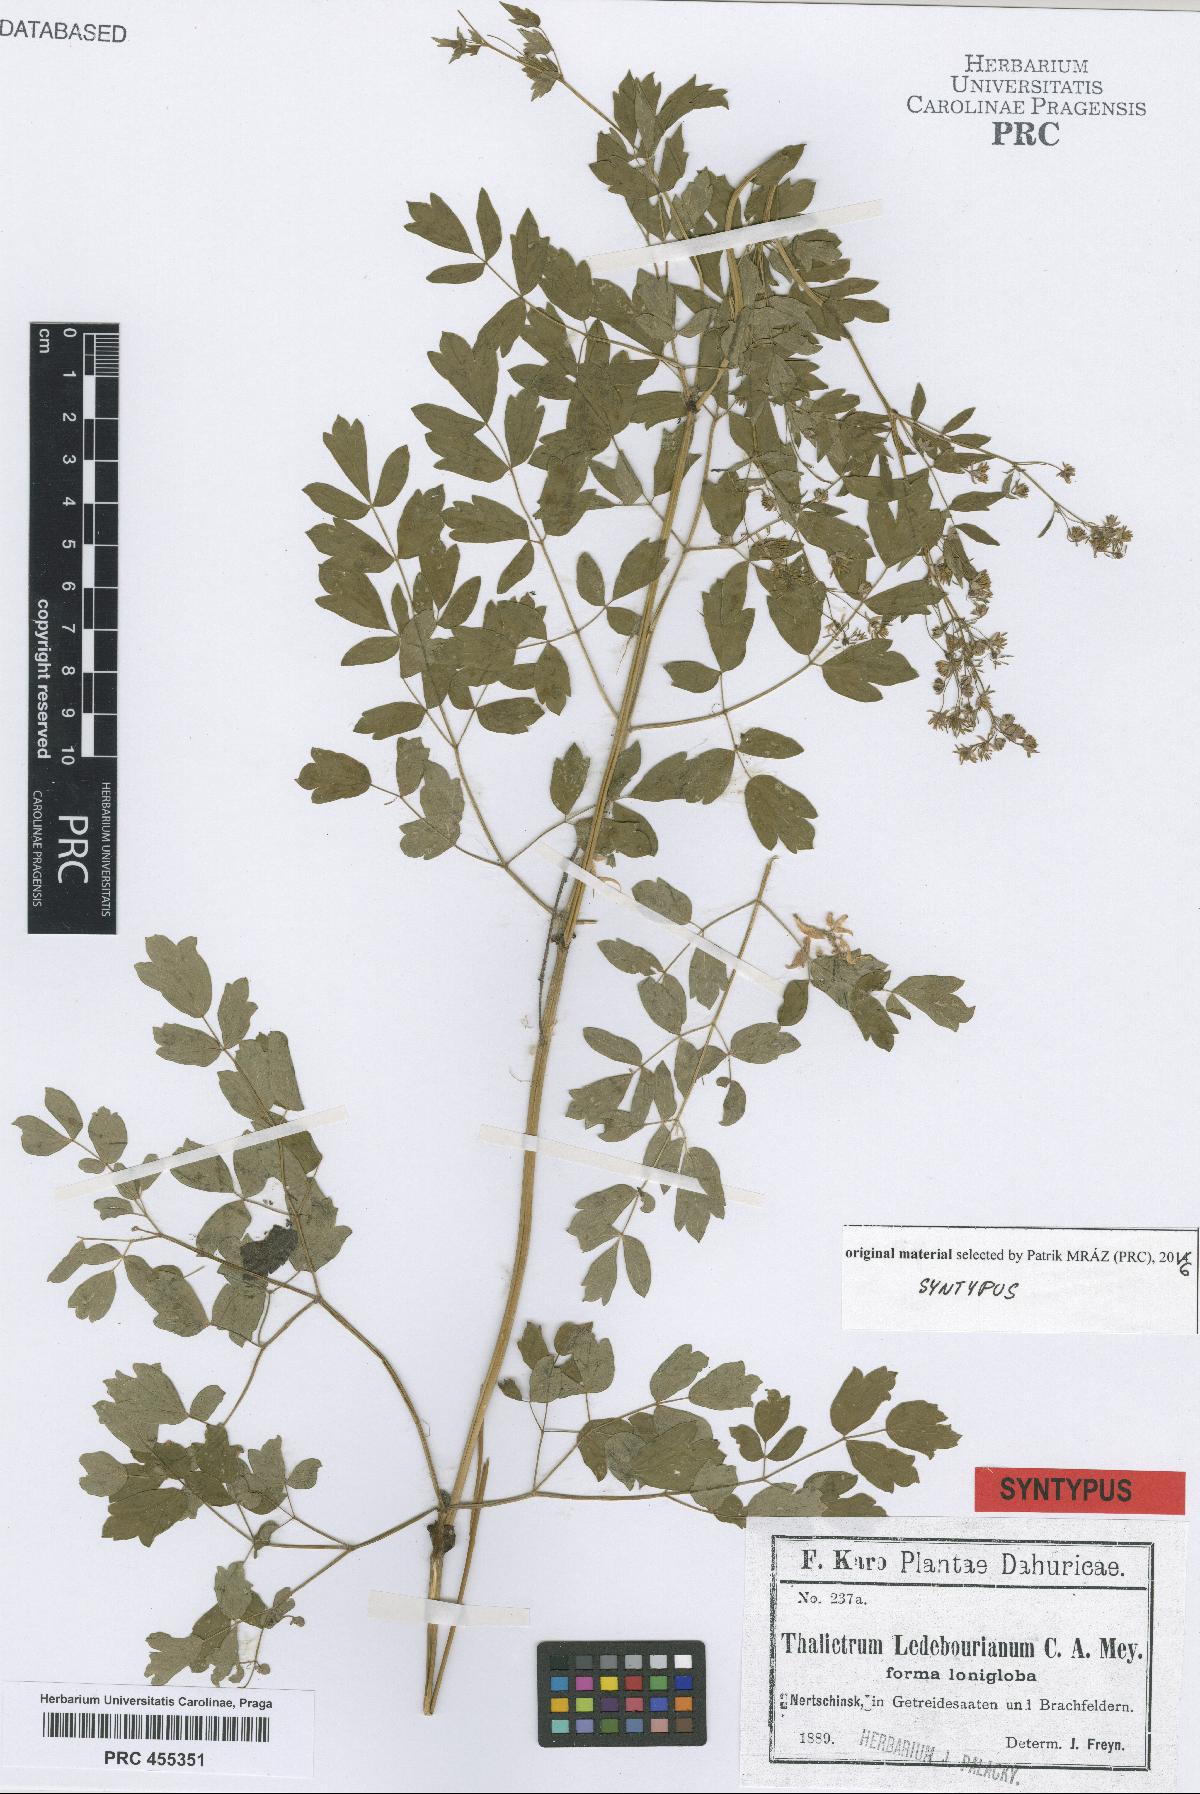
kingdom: Plantae
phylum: Tracheophyta
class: Magnoliopsida
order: Ranunculales
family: Ranunculaceae
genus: Thalictrum
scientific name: Thalictrum squarrosum
